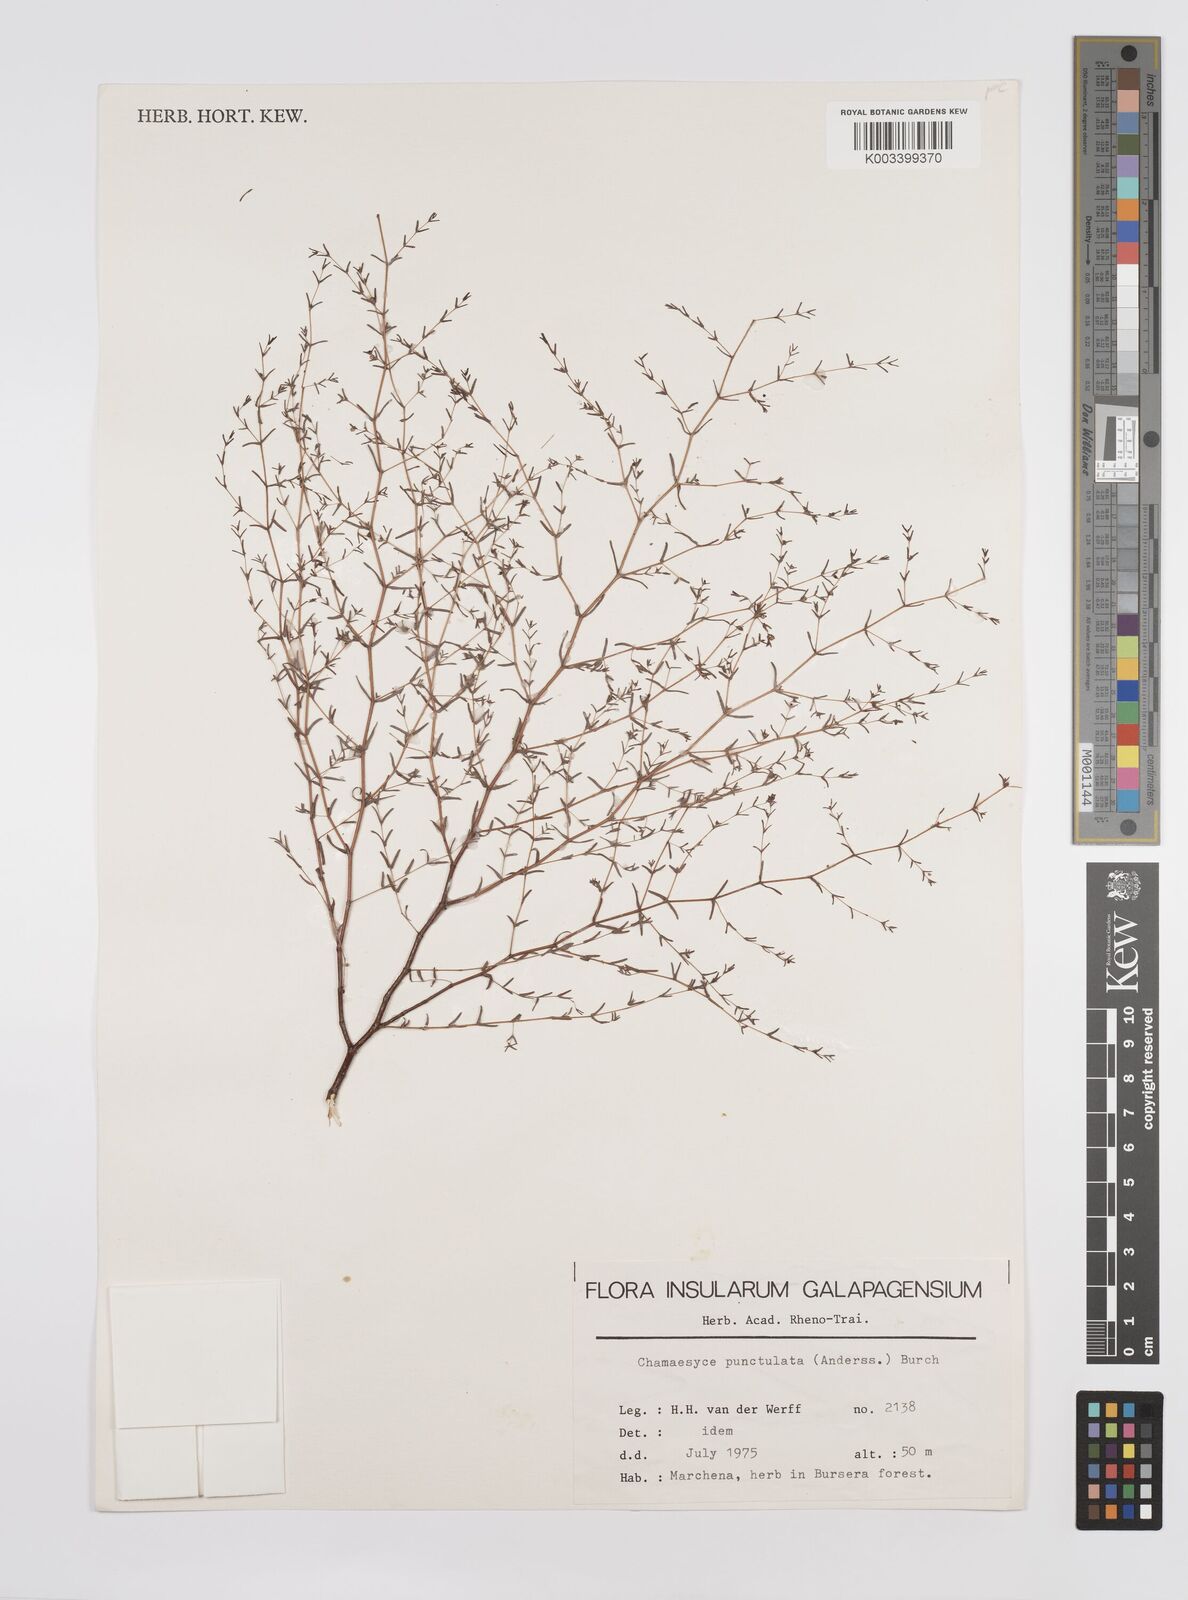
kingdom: Plantae
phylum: Tracheophyta
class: Magnoliopsida
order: Malpighiales
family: Euphorbiaceae
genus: Euphorbia
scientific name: Euphorbia punctulata
